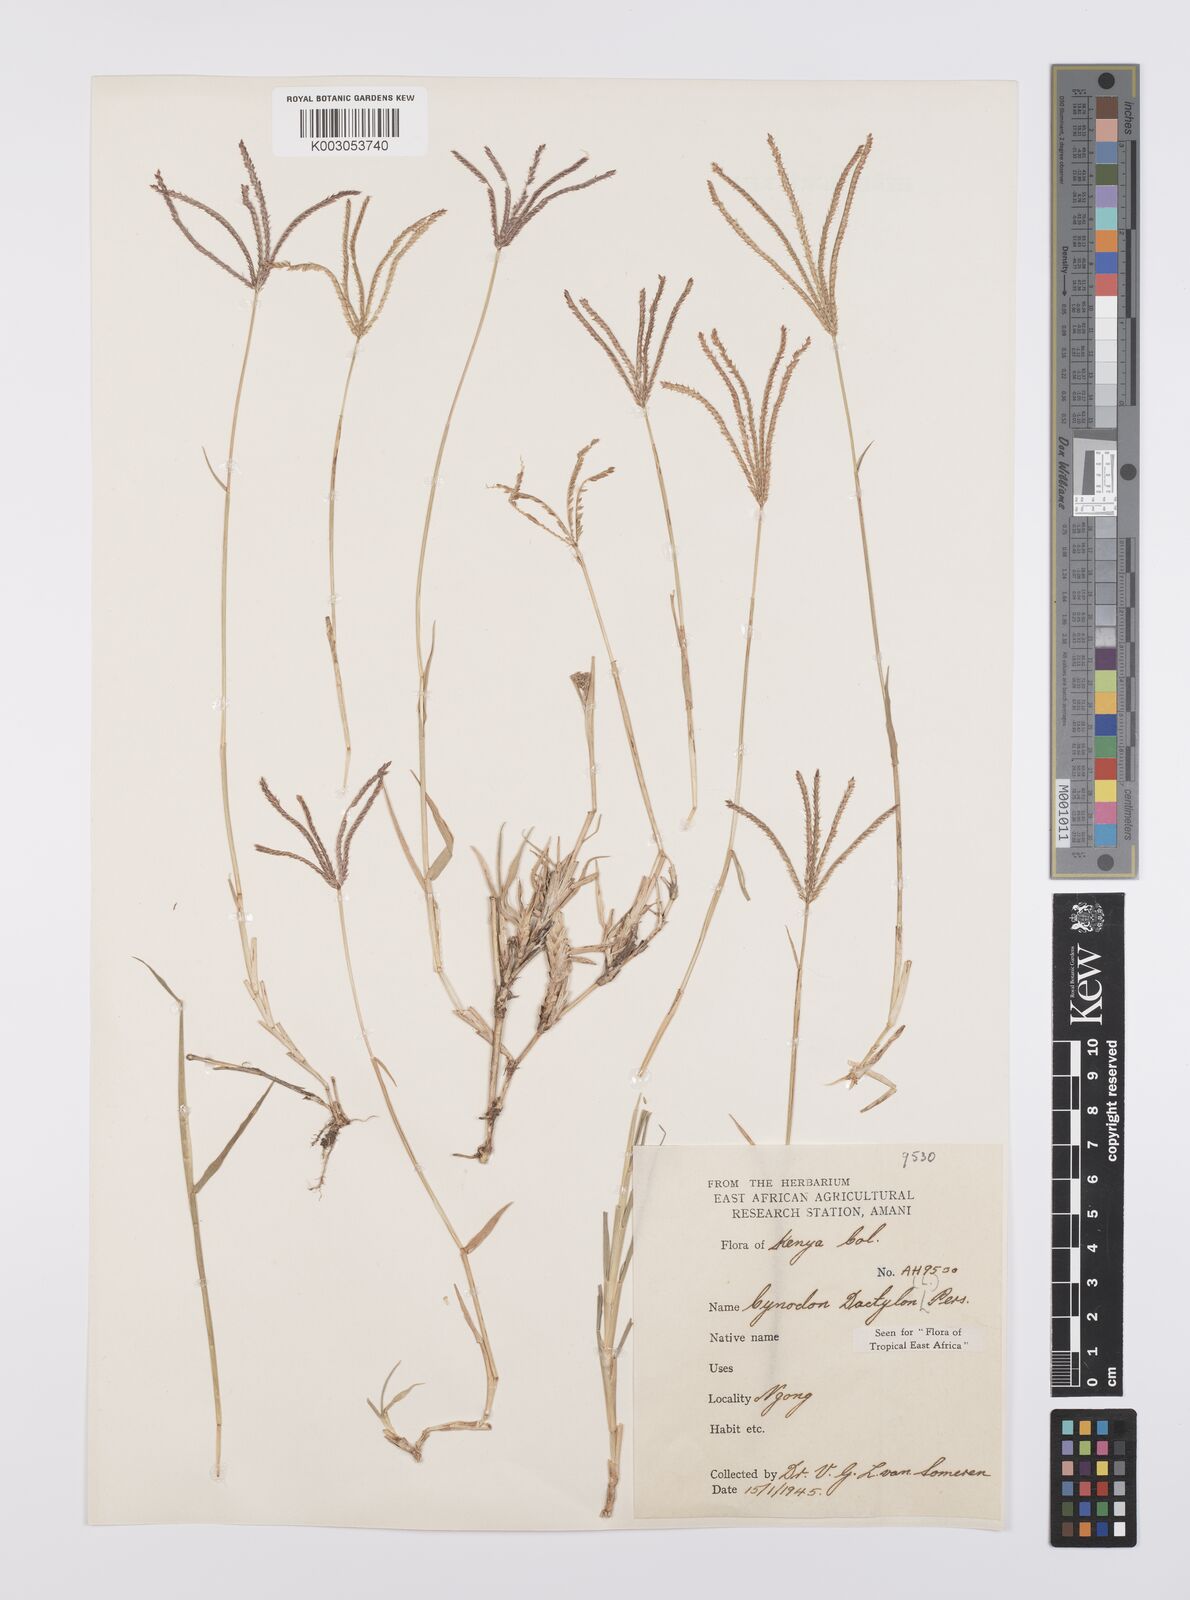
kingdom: Plantae
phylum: Tracheophyta
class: Liliopsida
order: Poales
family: Poaceae
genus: Cynodon
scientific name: Cynodon dactylon
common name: Bermuda grass
